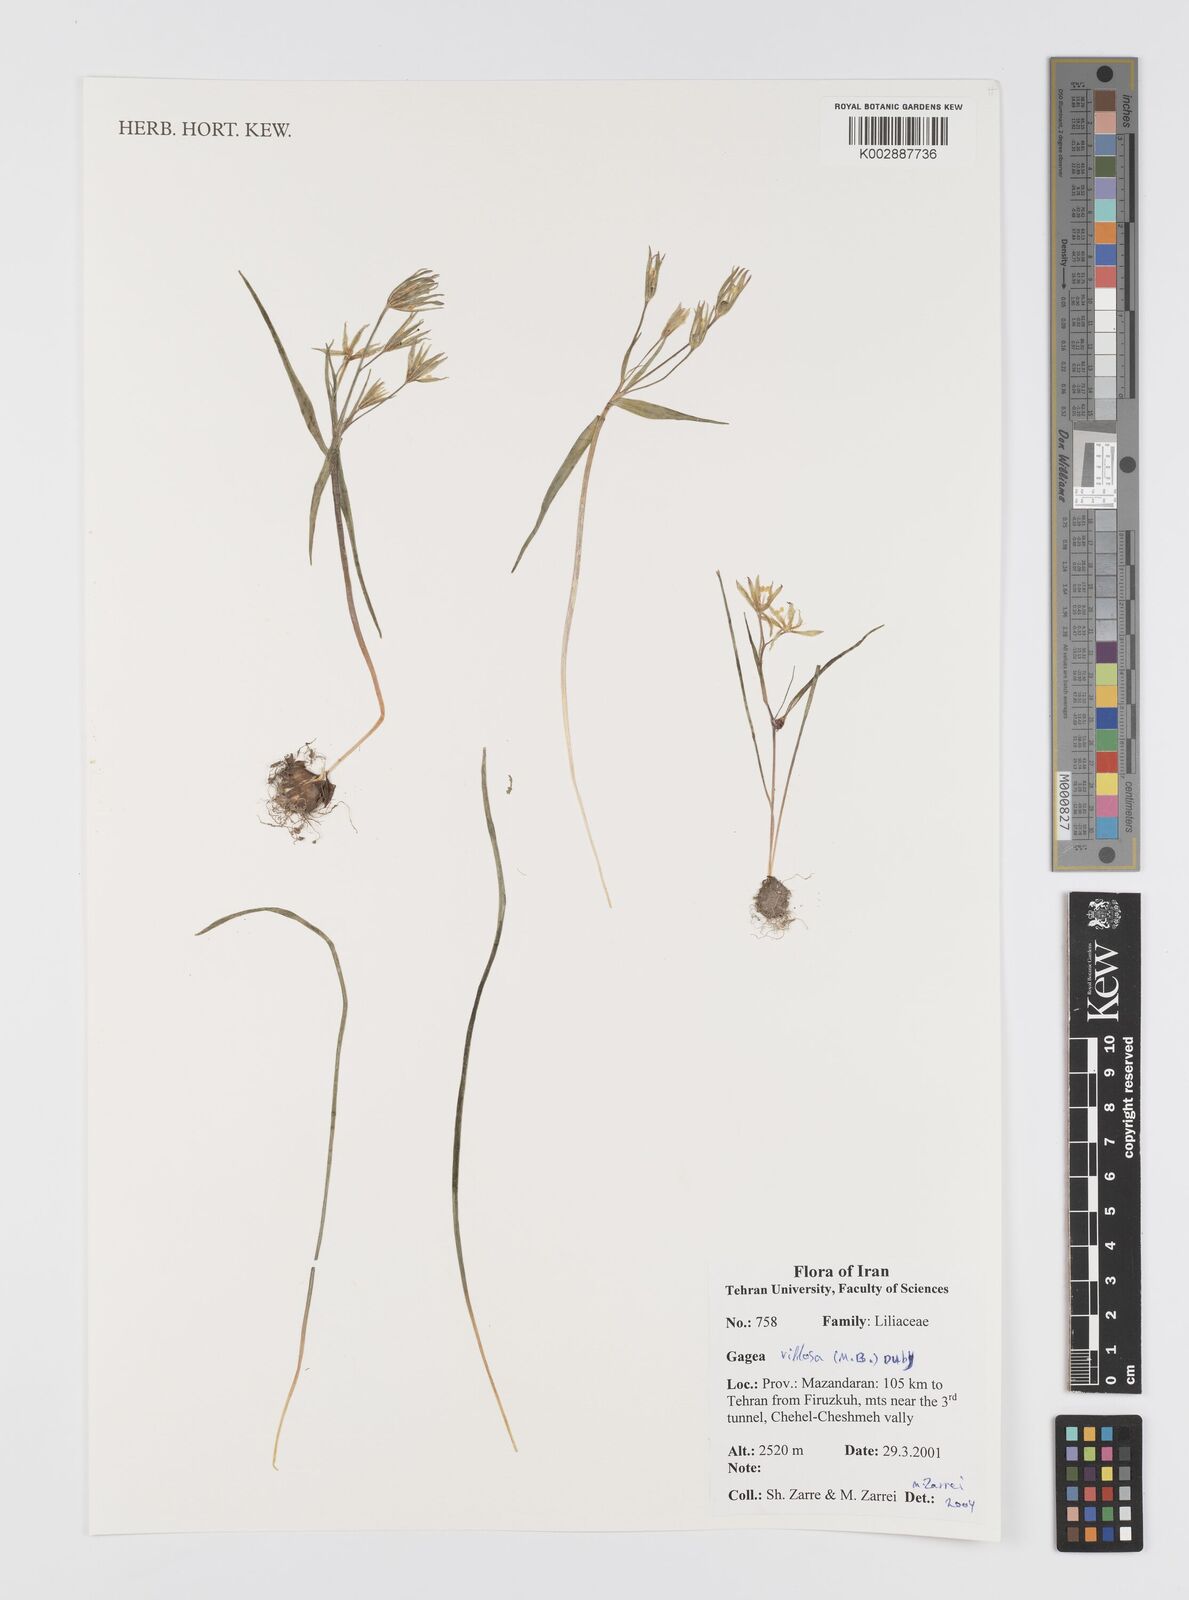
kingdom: Plantae
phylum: Tracheophyta
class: Liliopsida
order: Liliales
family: Liliaceae
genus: Gagea
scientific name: Gagea villosa
